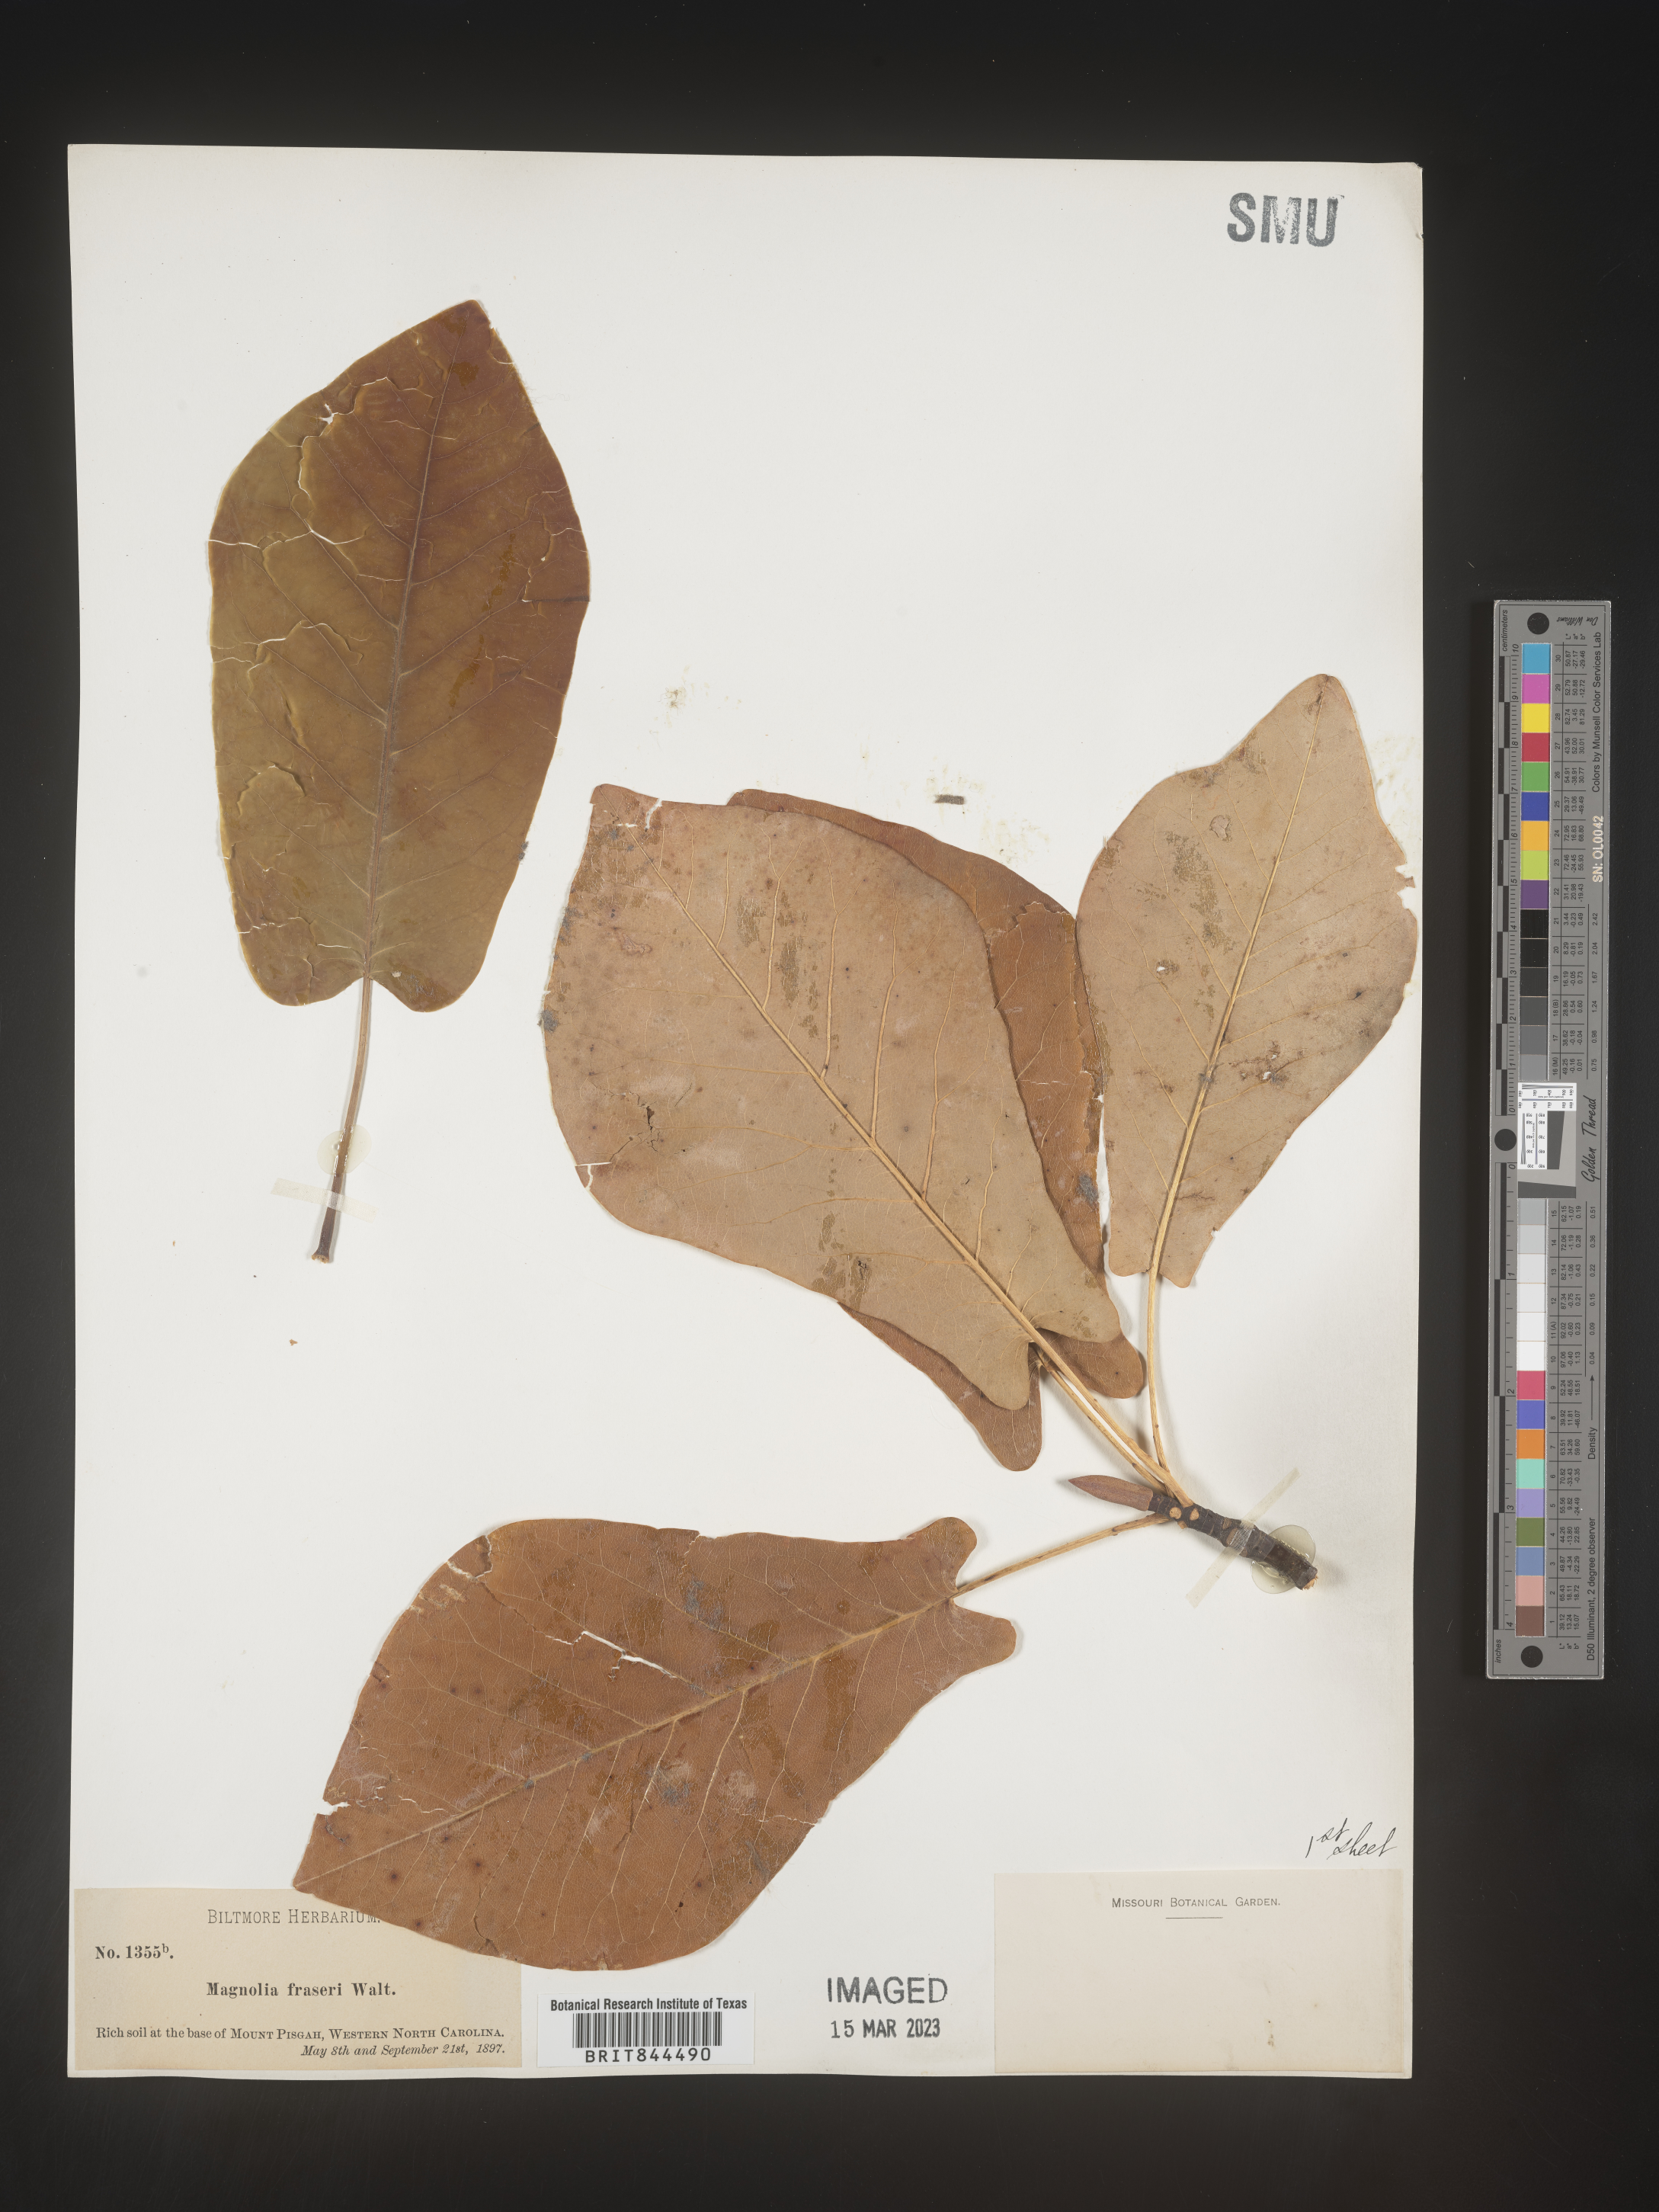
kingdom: Plantae
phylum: Tracheophyta
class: Magnoliopsida
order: Magnoliales
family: Magnoliaceae
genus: Magnolia
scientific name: Magnolia
